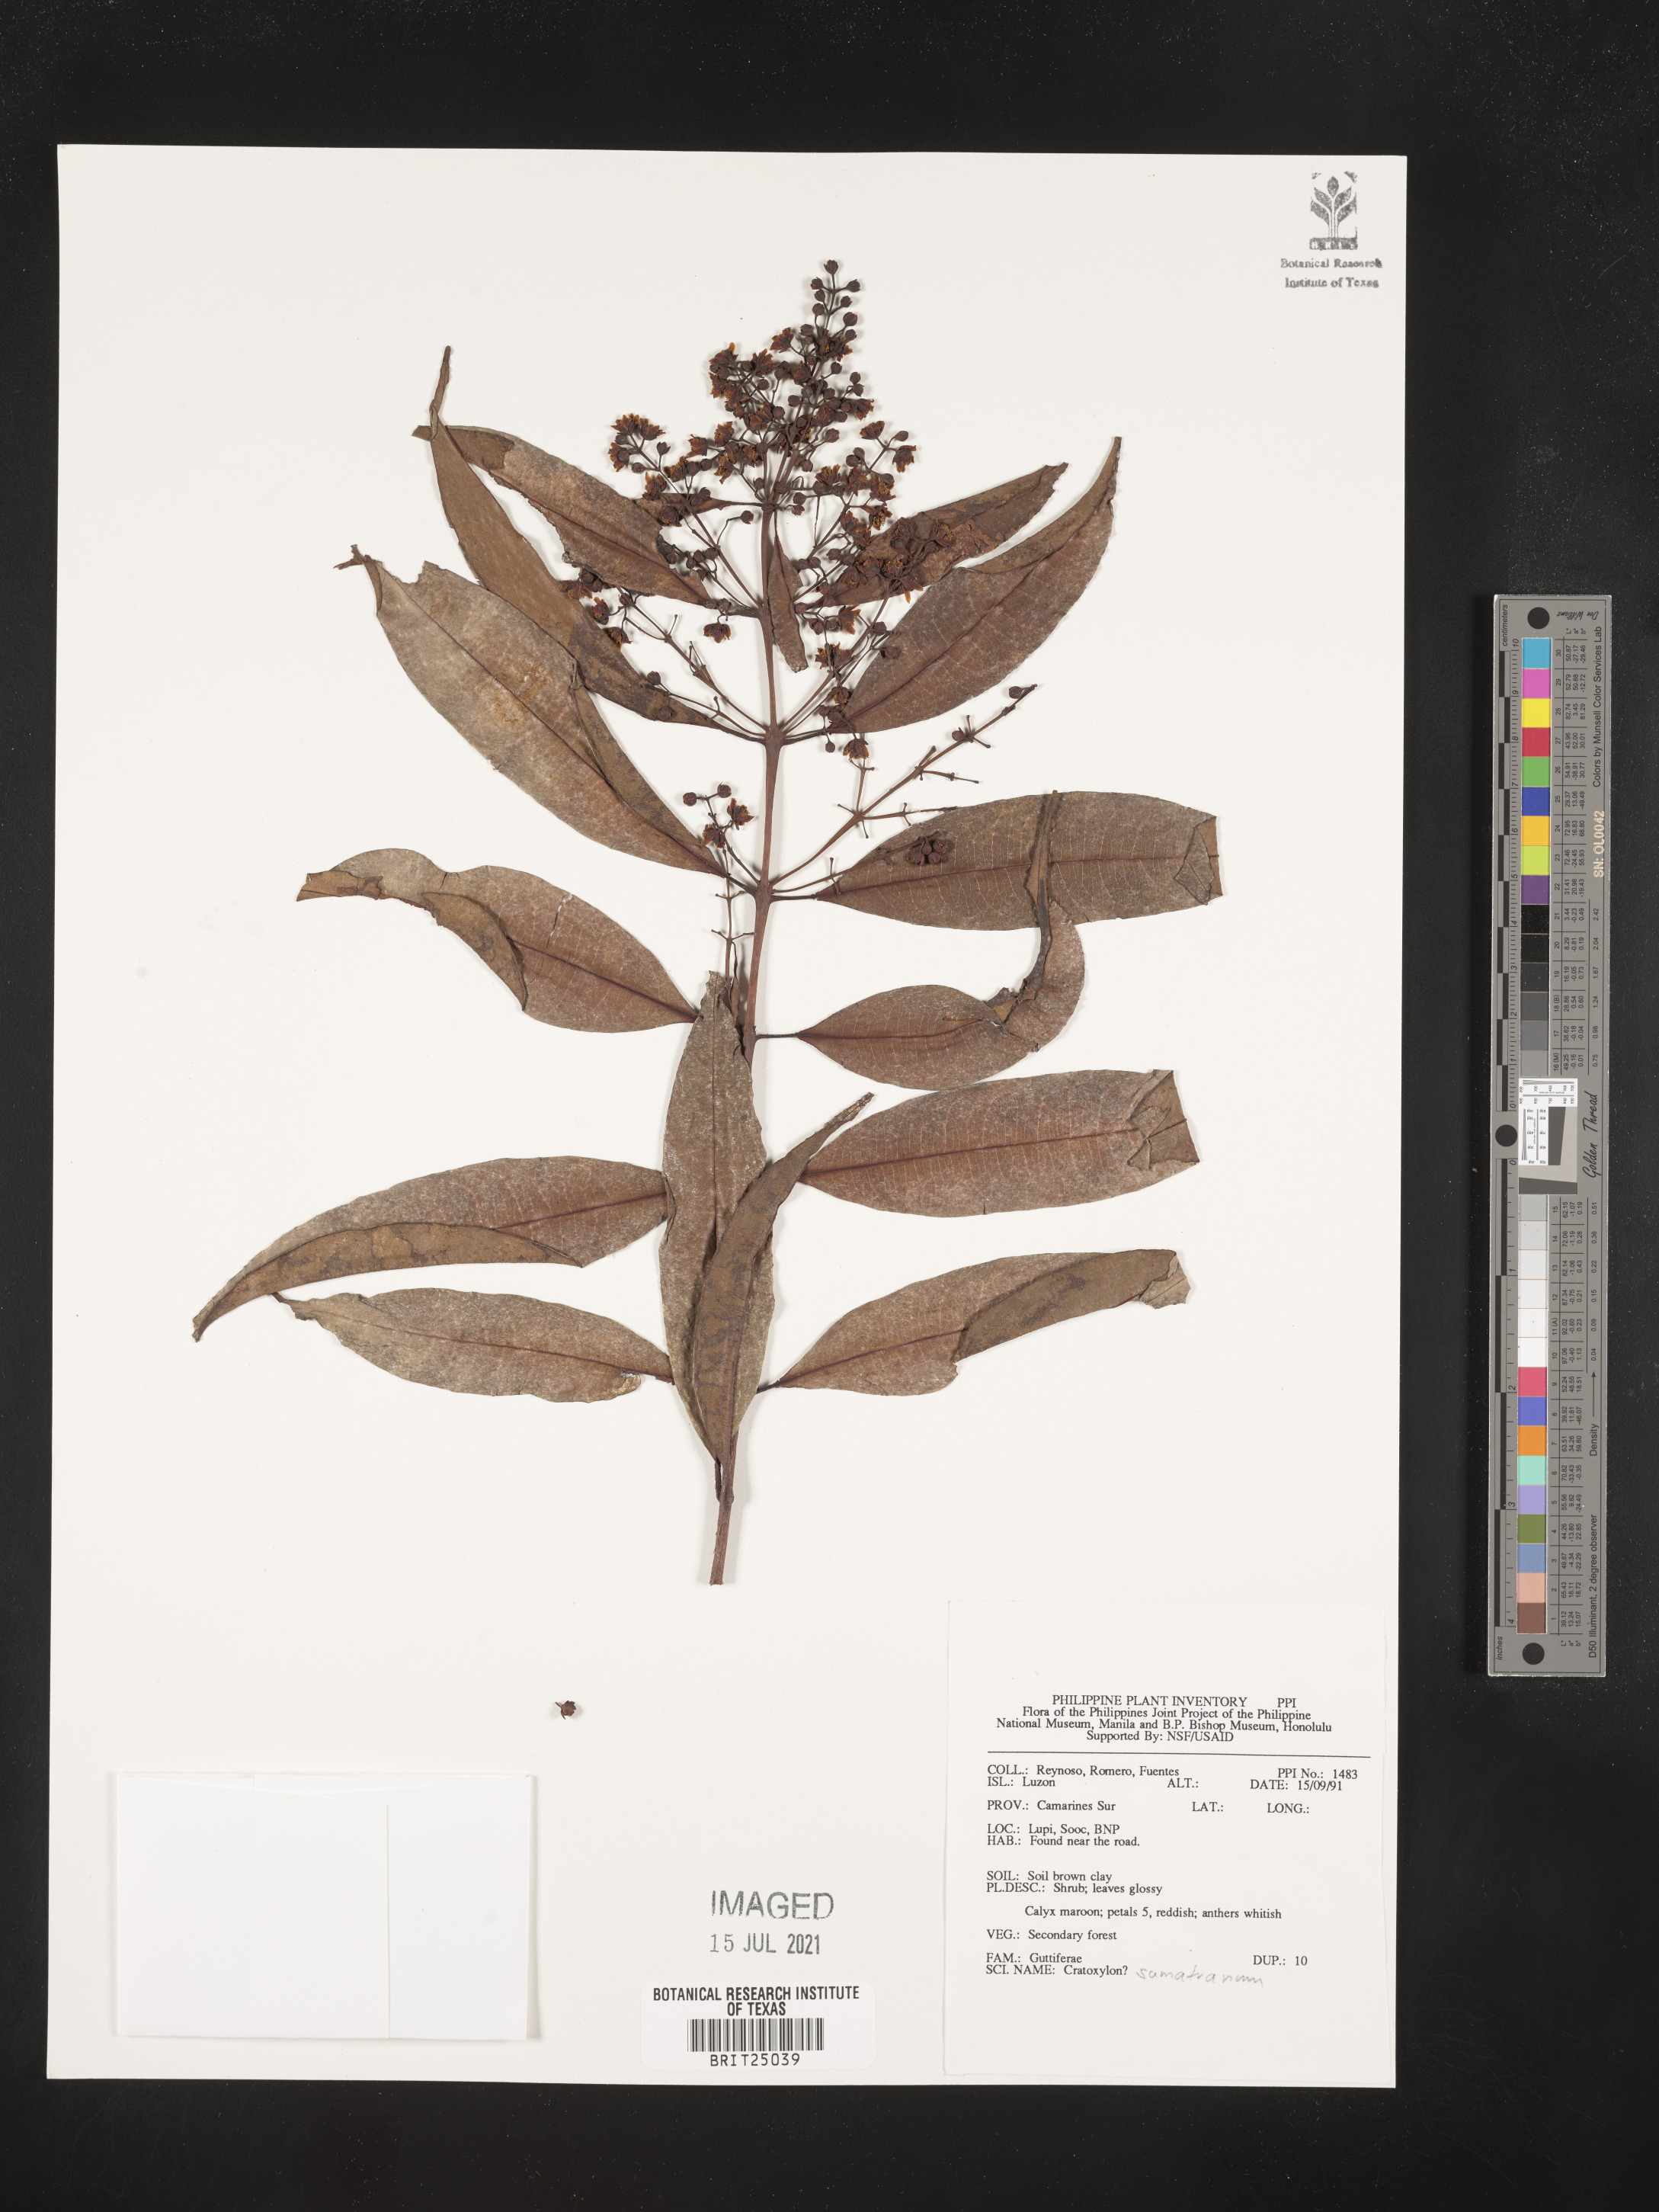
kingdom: Plantae
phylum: Tracheophyta
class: Magnoliopsida
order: Malpighiales
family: Hypericaceae
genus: Cratoxylum
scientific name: Cratoxylum sumatranum
